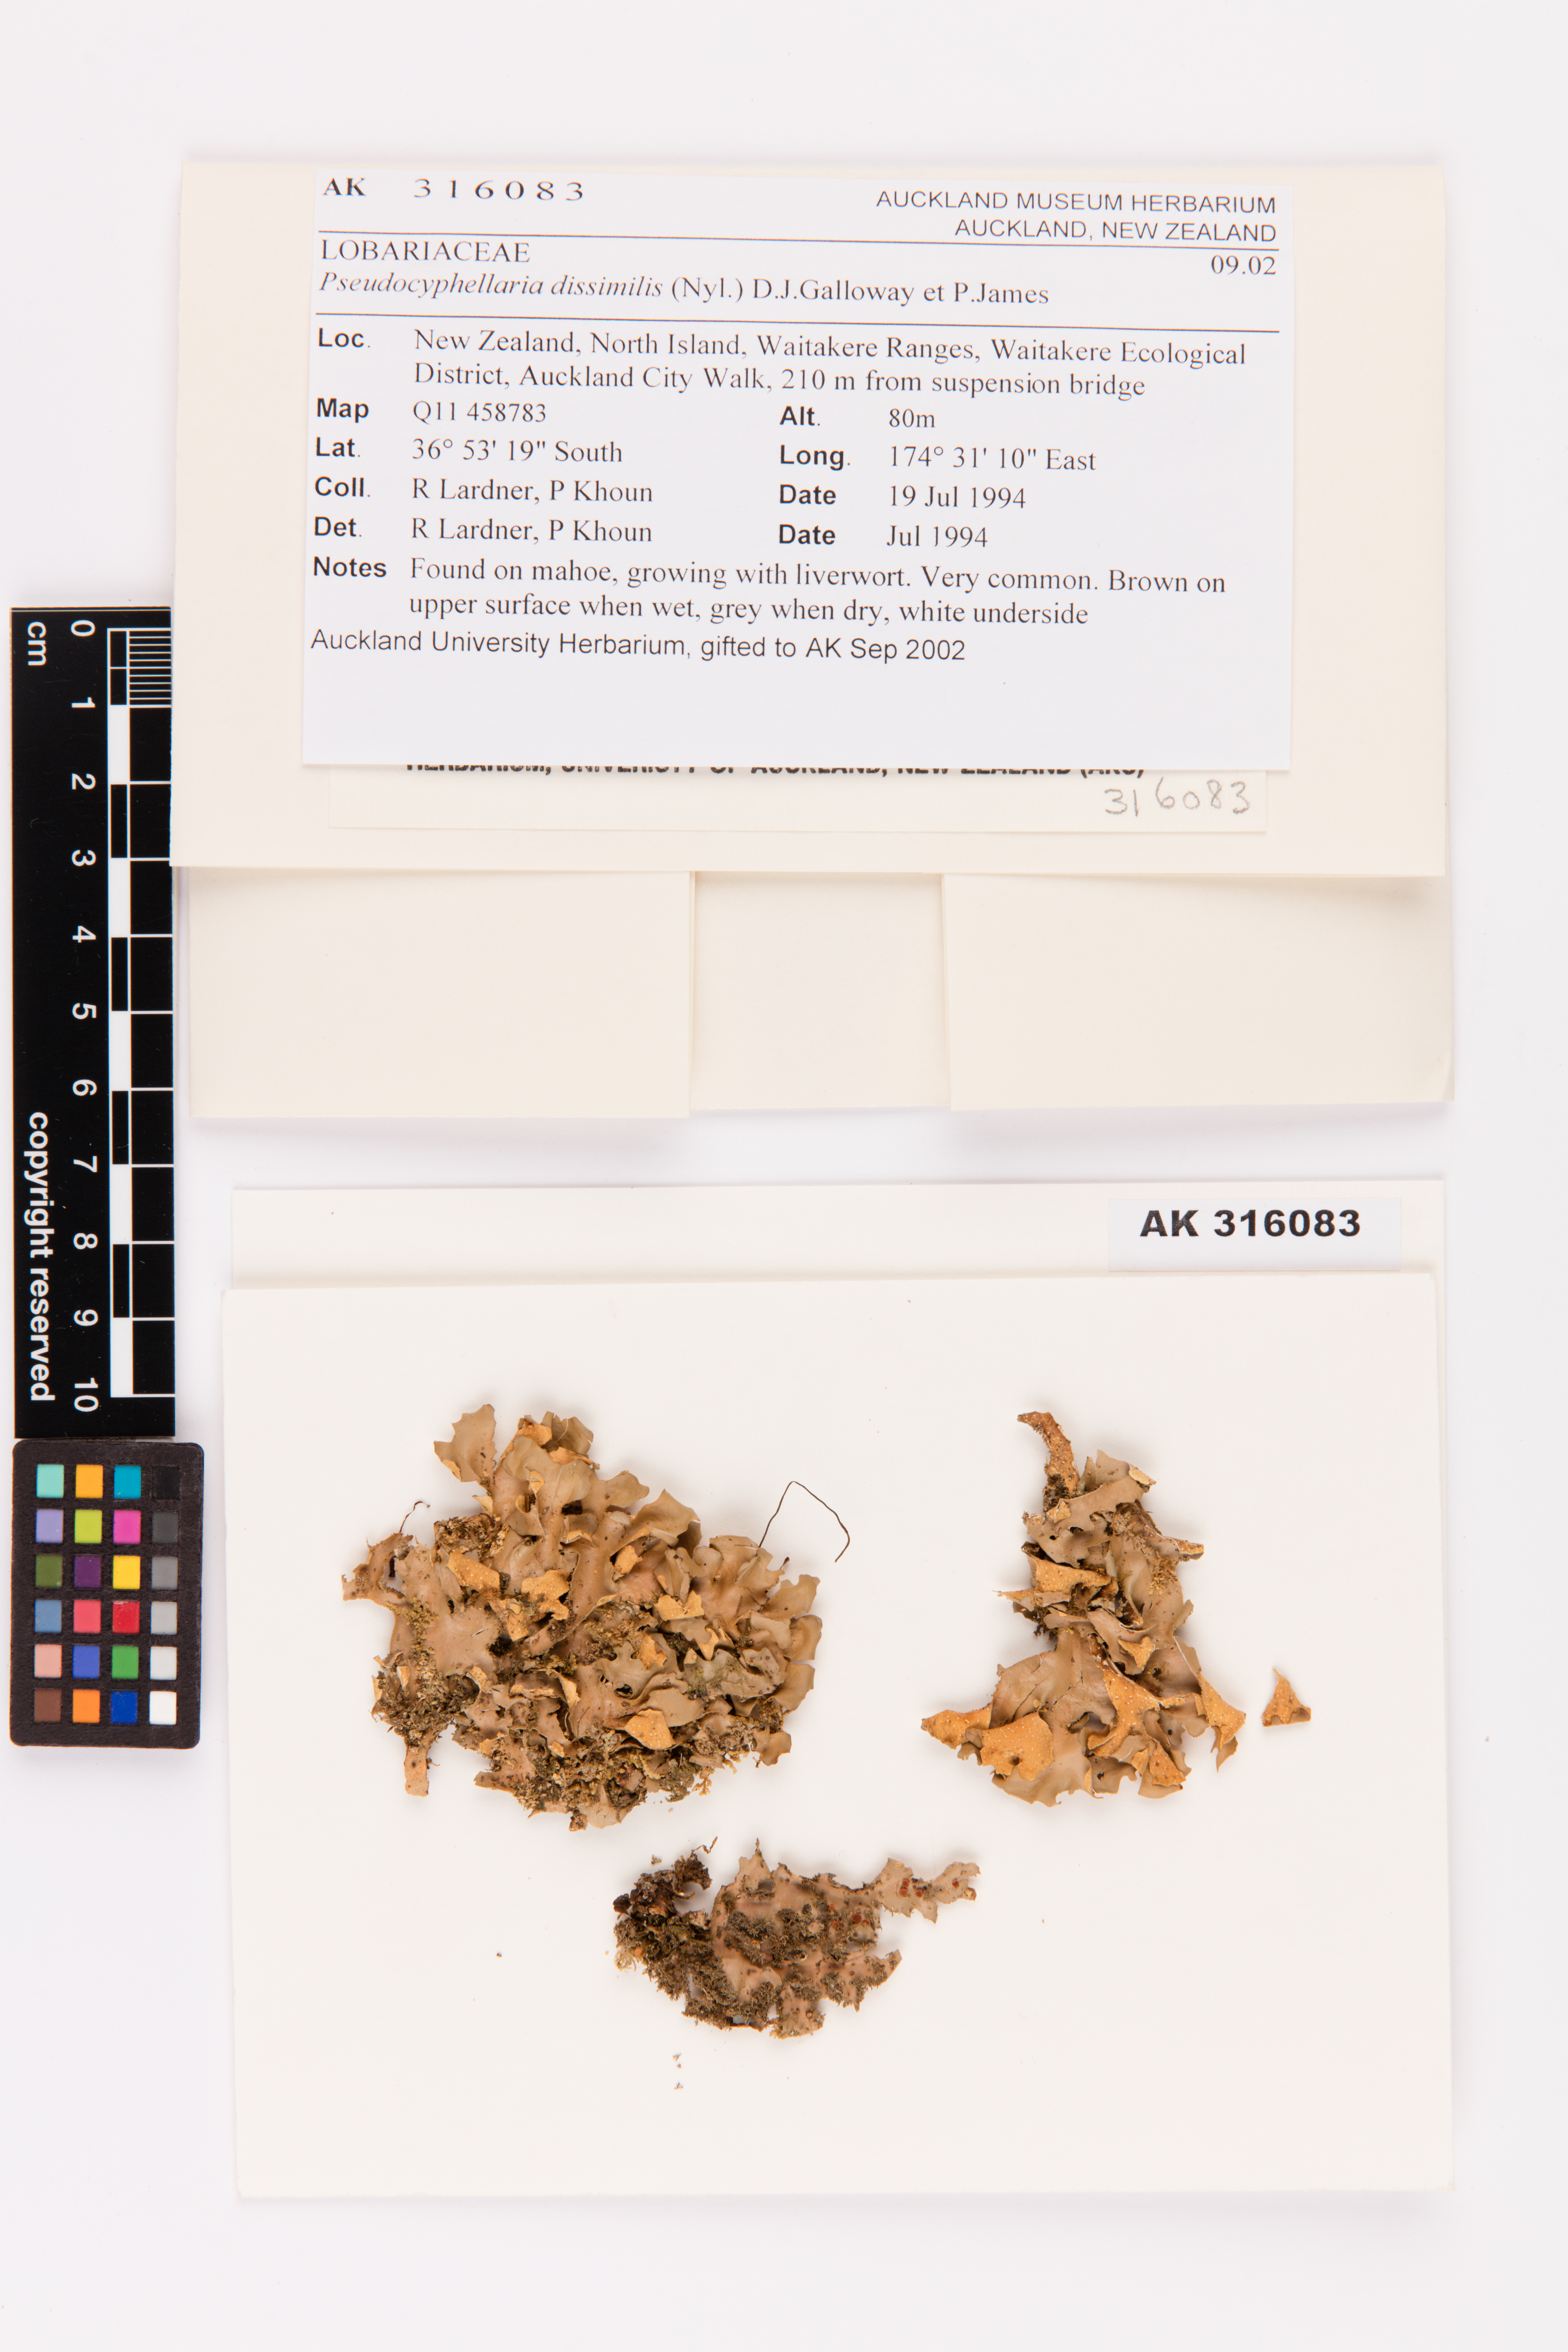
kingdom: Fungi
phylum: Ascomycota
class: Lecanoromycetes
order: Peltigerales
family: Lobariaceae
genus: Pseudocyphellaria
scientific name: Pseudocyphellaria dissimilis
